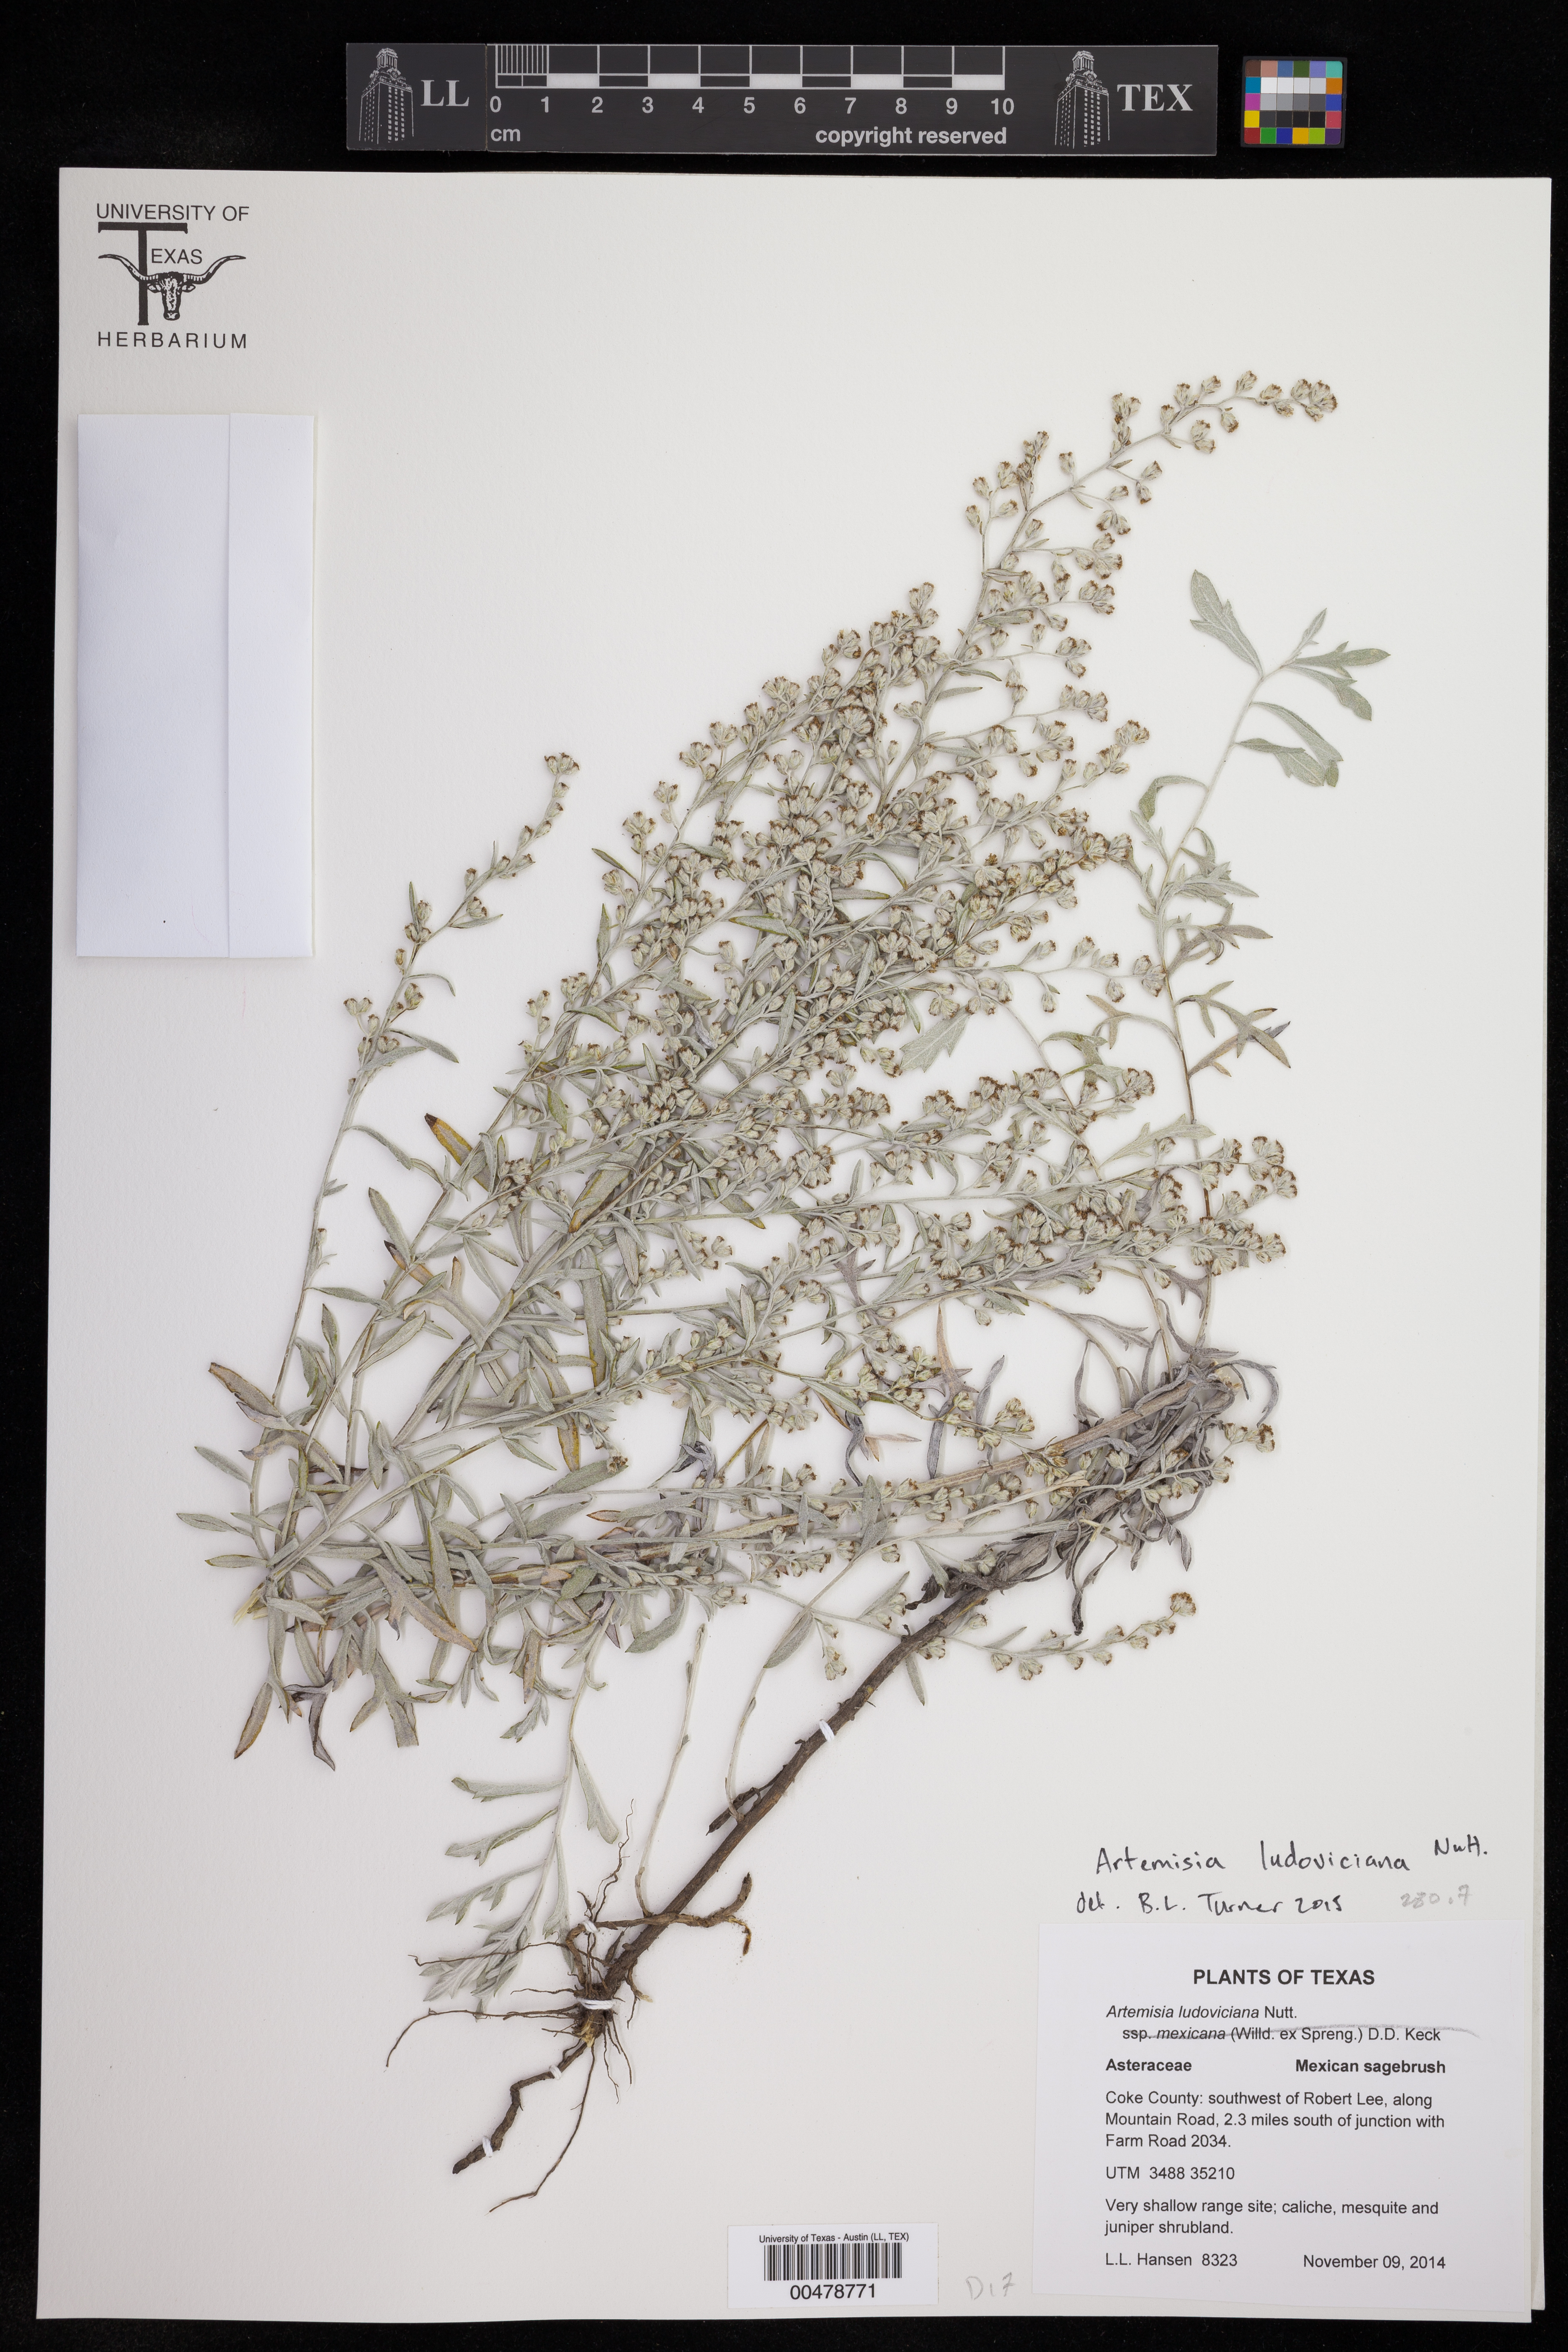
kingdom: Plantae
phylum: Tracheophyta
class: Magnoliopsida
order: Asterales
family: Asteraceae
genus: Artemisia
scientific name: Artemisia ludoviciana
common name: Western mugwort
